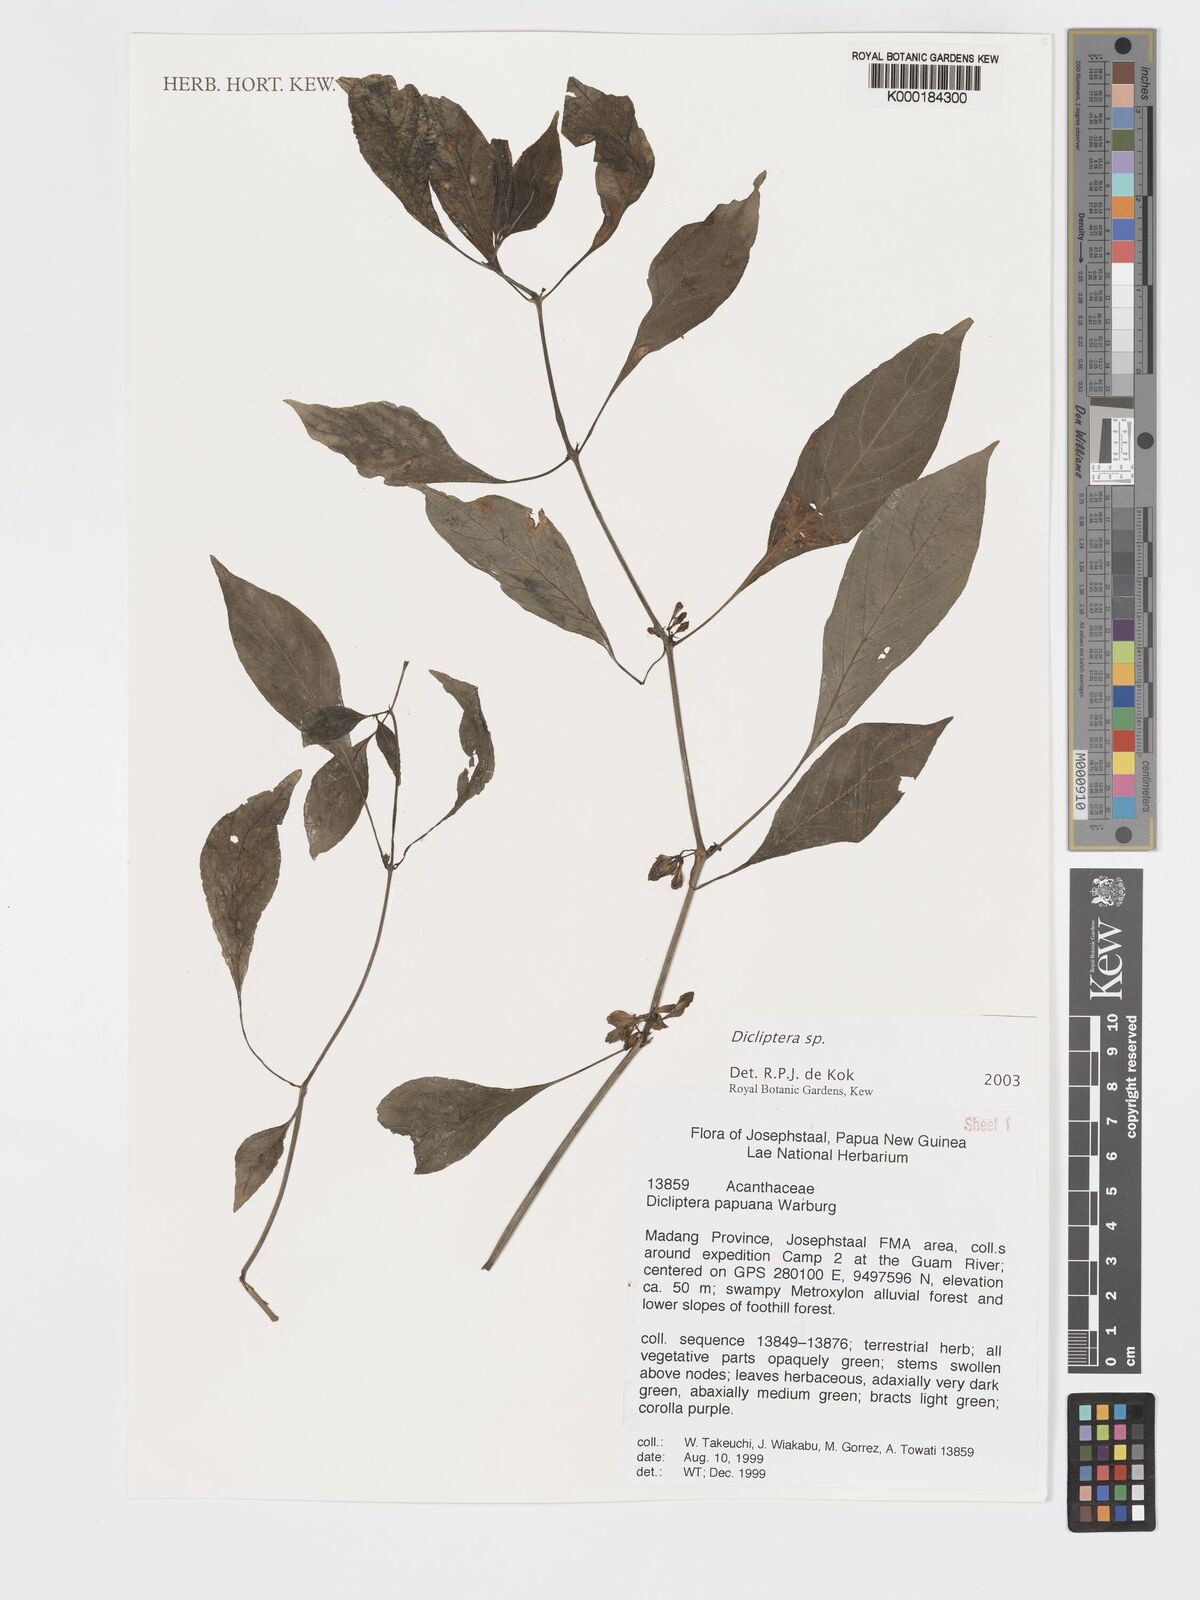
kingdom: Plantae
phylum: Tracheophyta
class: Magnoliopsida
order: Lamiales
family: Acanthaceae
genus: Dicliptera
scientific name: Dicliptera
